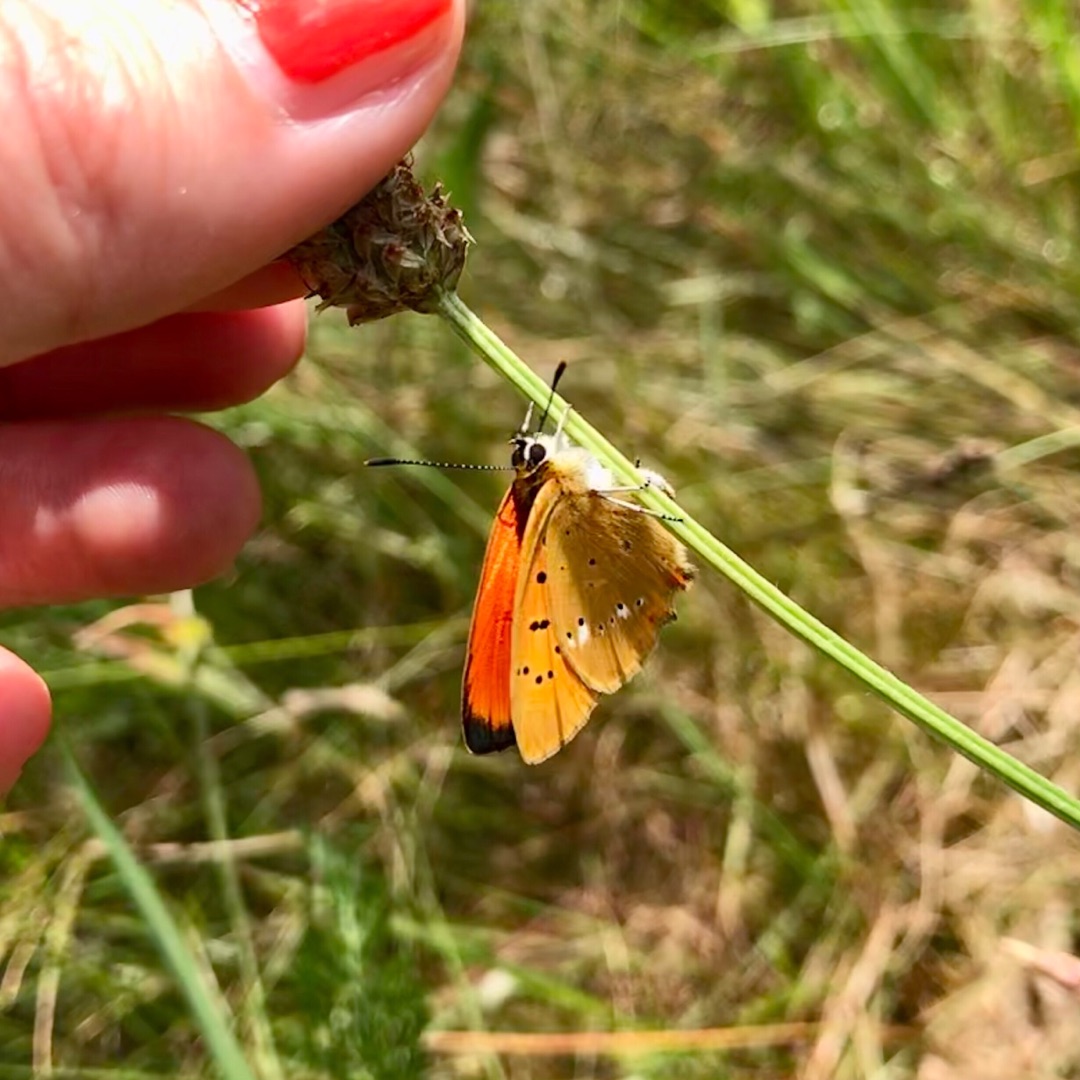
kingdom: Animalia
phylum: Arthropoda
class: Insecta
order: Lepidoptera
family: Lycaenidae
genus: Lycaena
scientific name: Lycaena virgaureae
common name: Dukatsommerfugl
